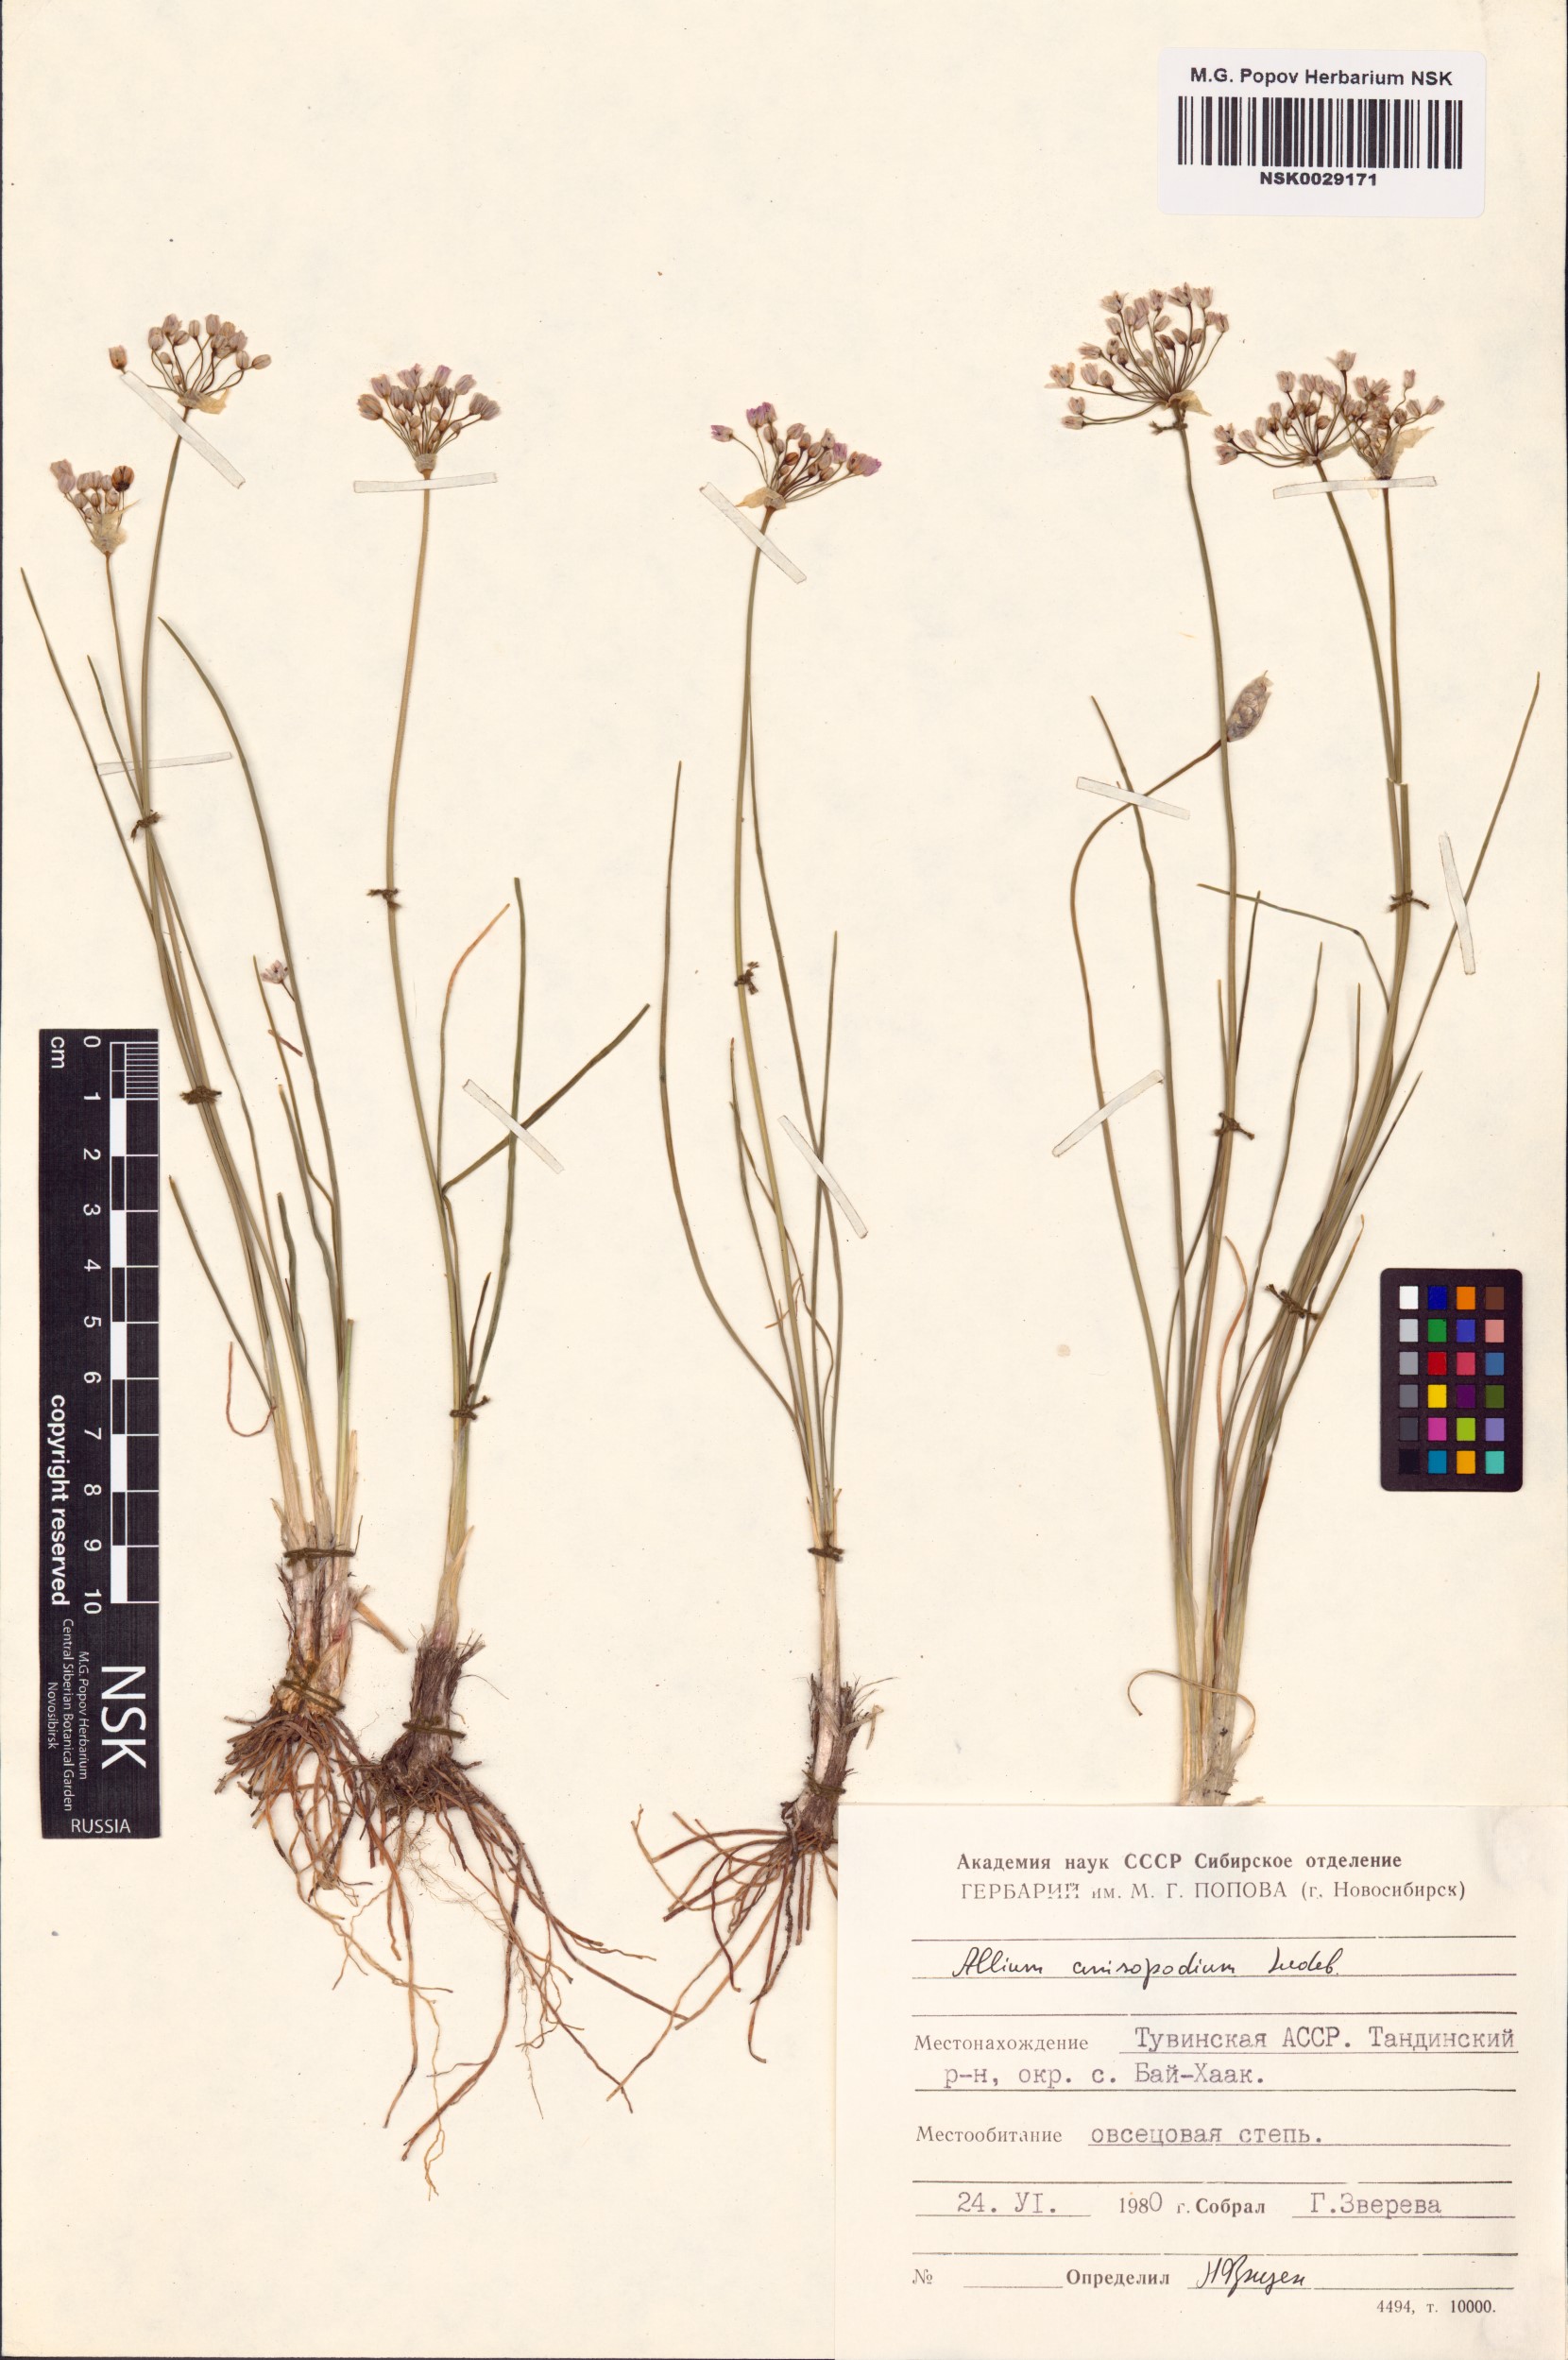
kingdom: Plantae
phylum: Tracheophyta
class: Liliopsida
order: Asparagales
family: Amaryllidaceae
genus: Allium
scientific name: Allium anisopodium
